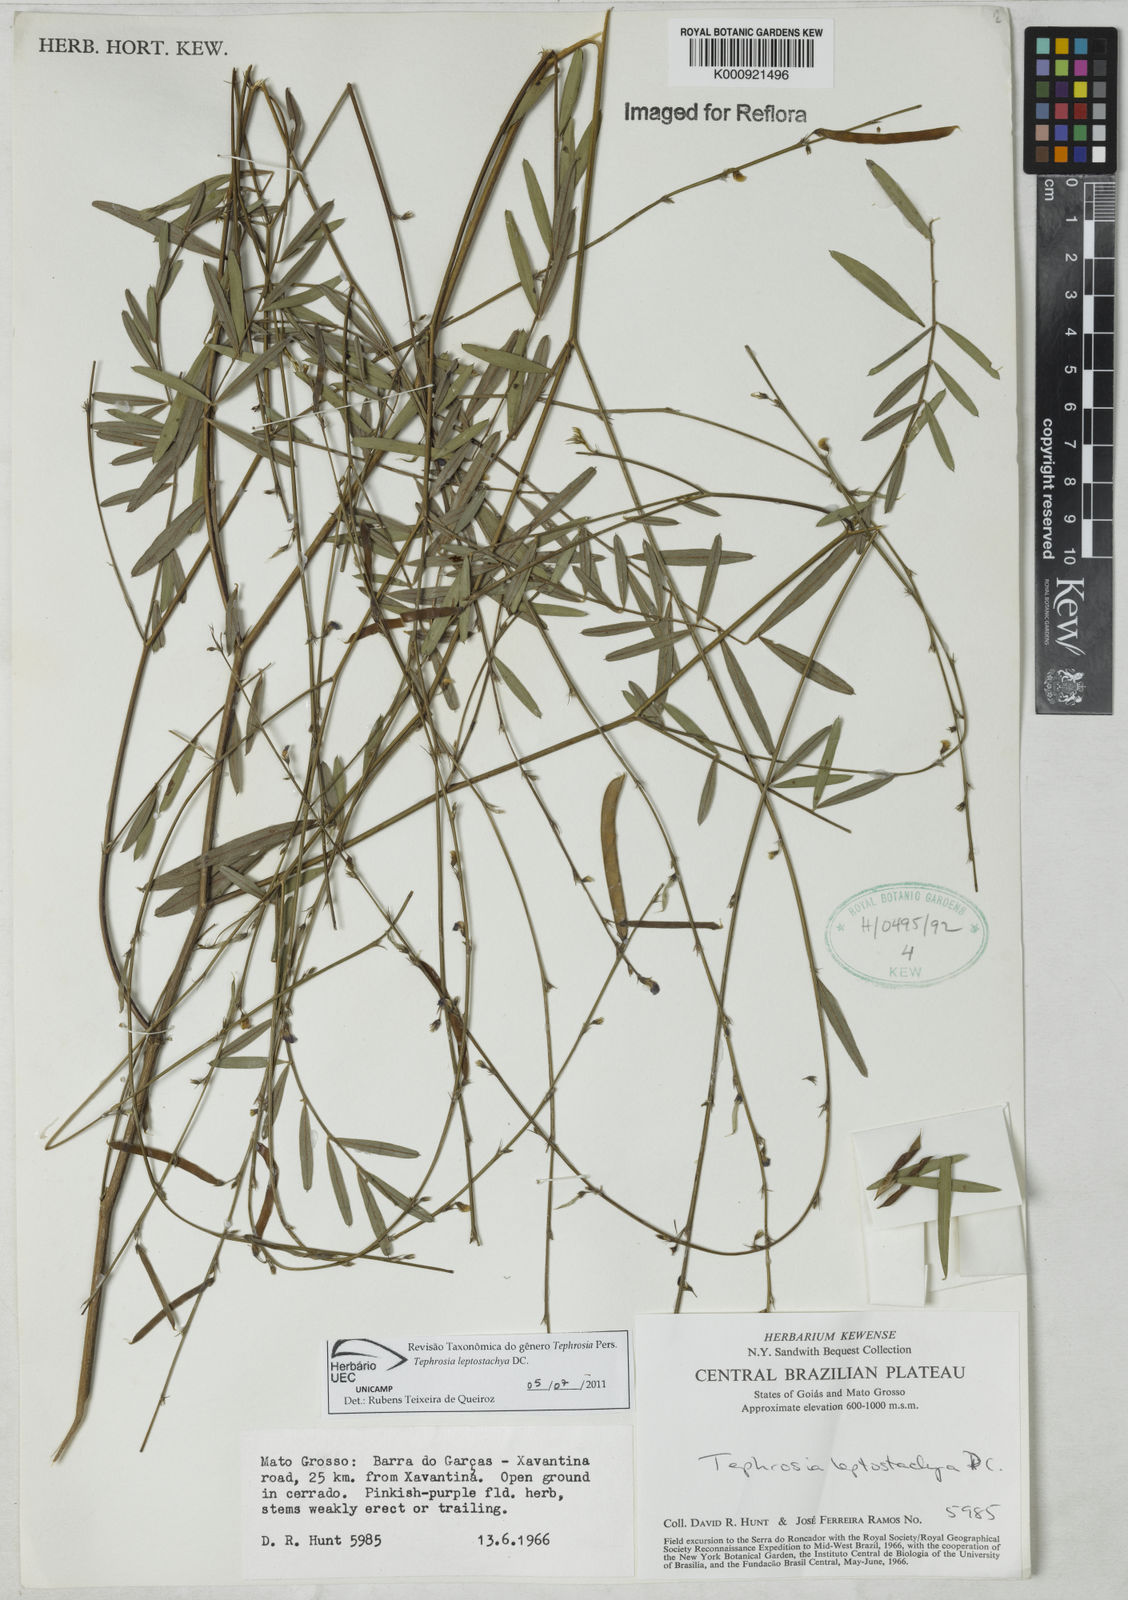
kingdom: Plantae
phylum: Tracheophyta
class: Magnoliopsida
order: Fabales
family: Fabaceae
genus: Tephrosia
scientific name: Tephrosia purpurea
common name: Fishpoison
